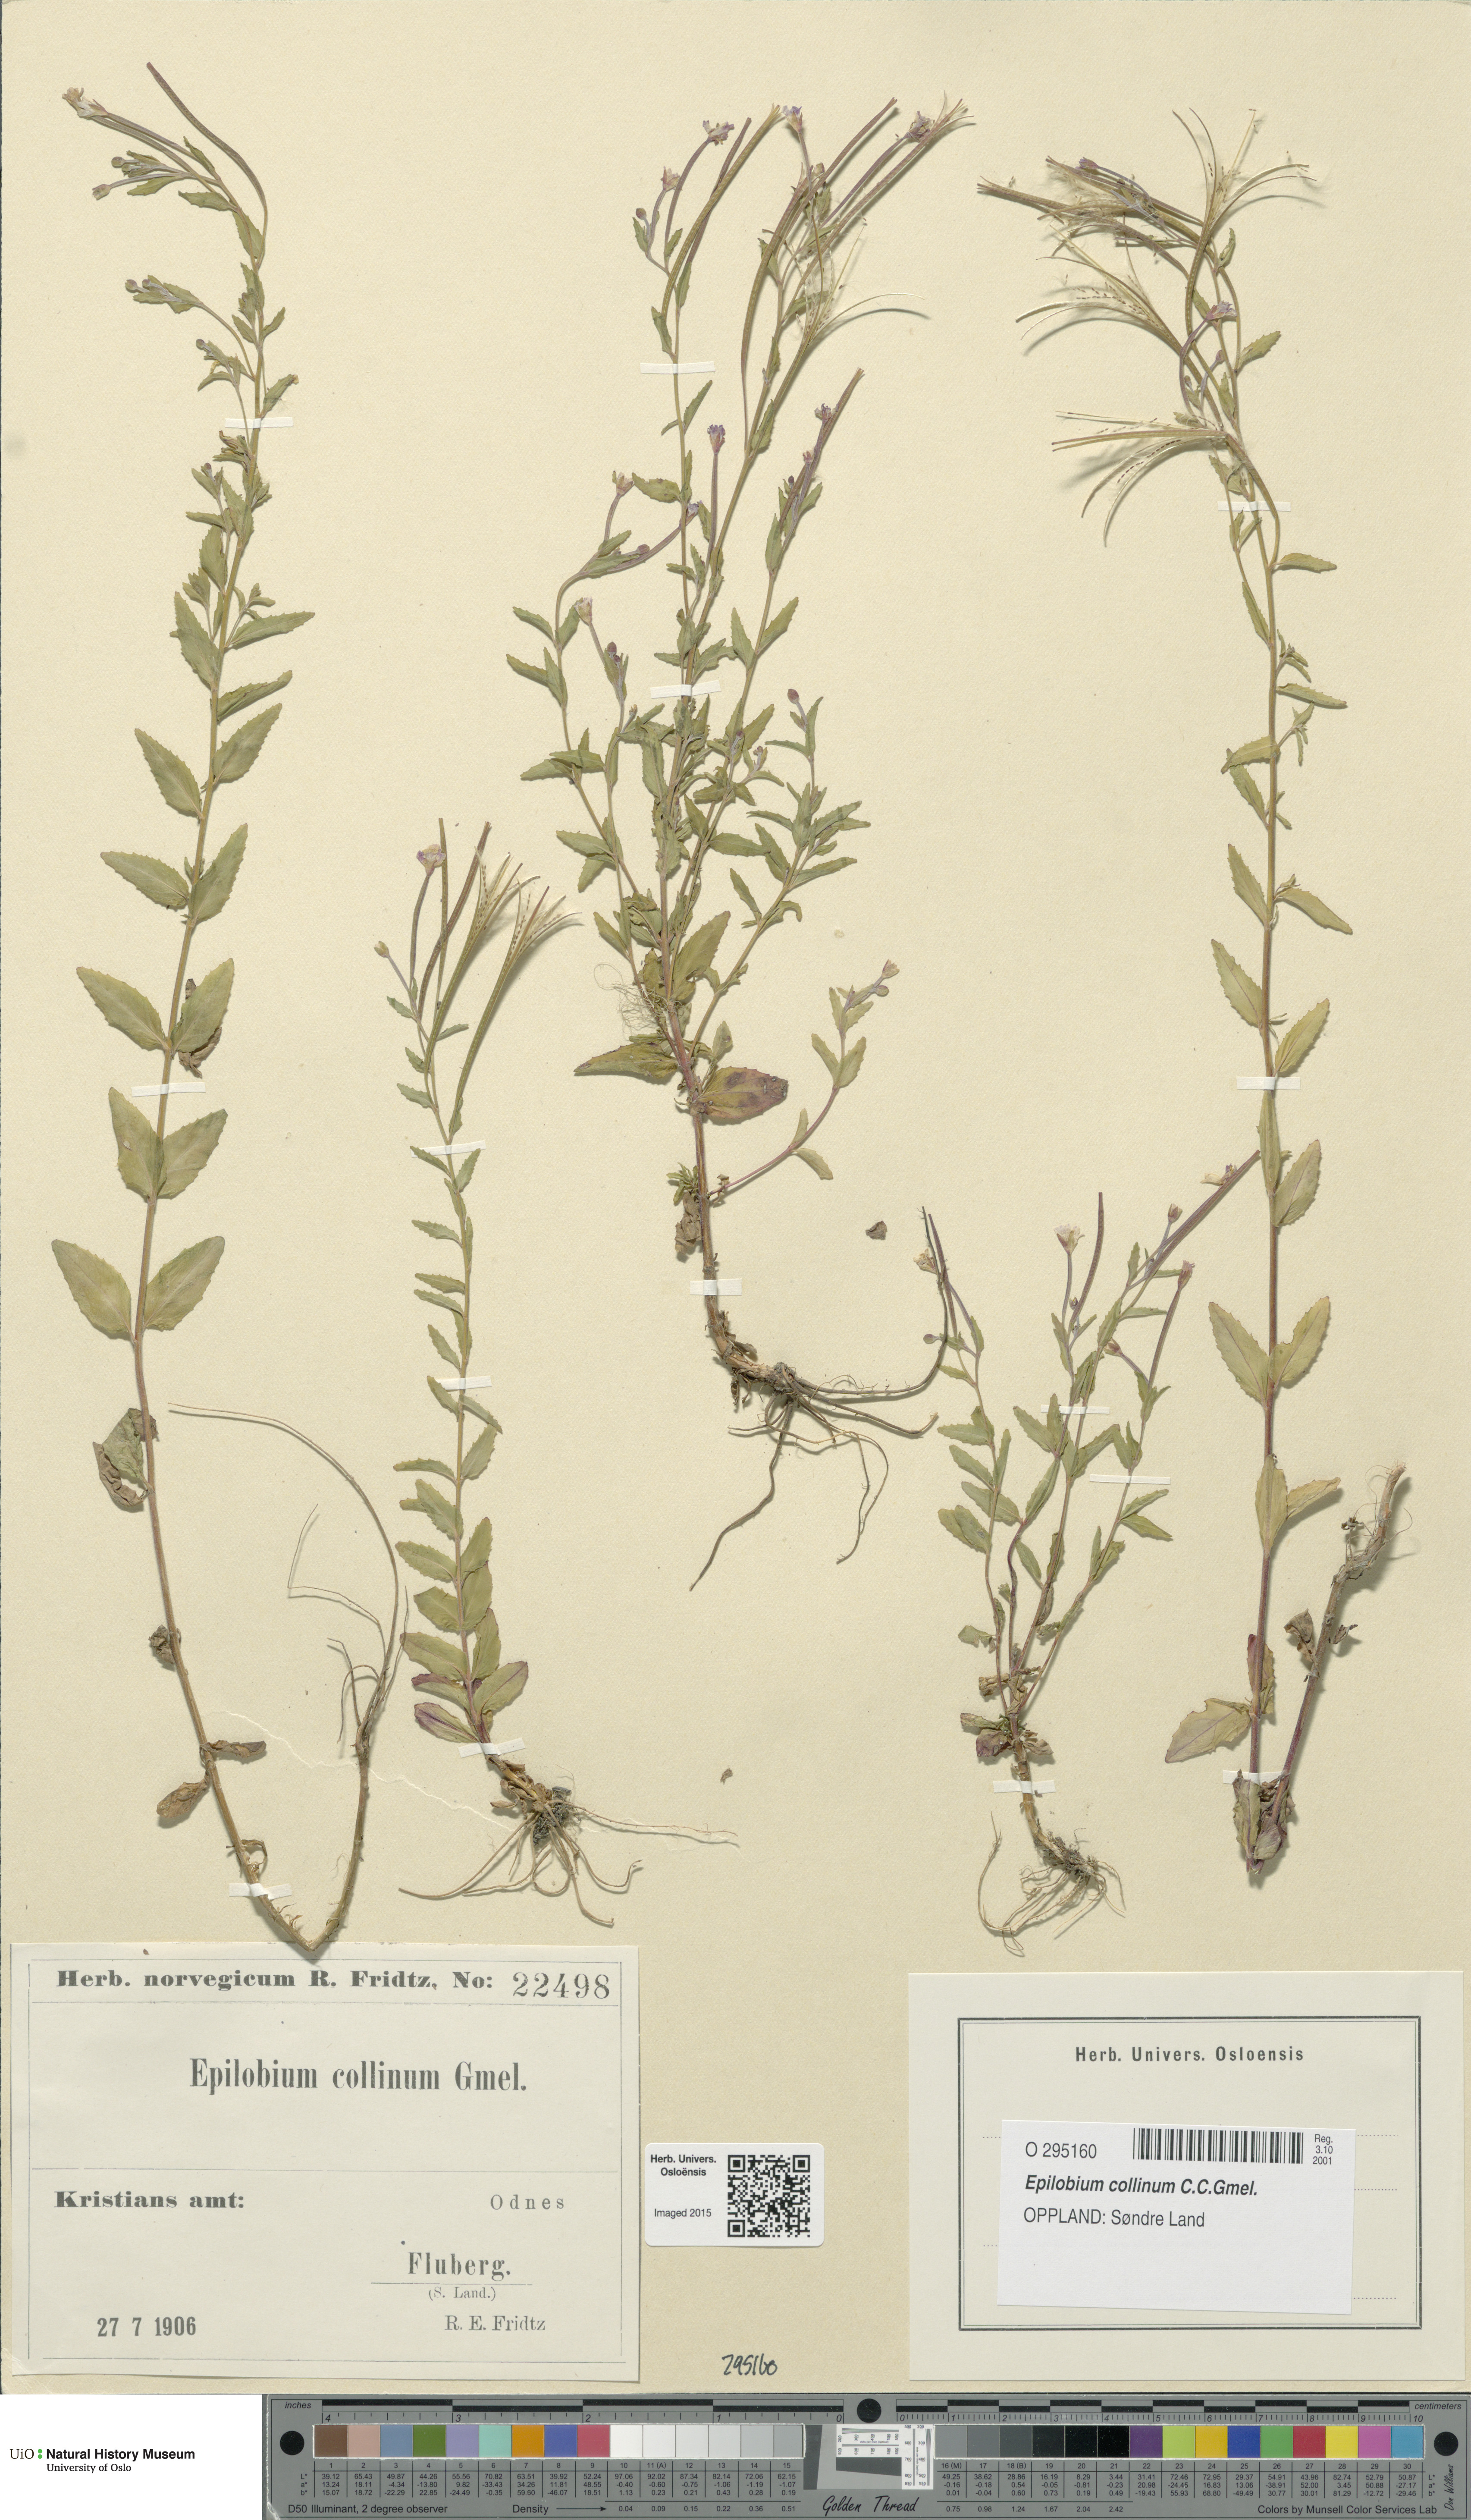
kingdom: Plantae
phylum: Tracheophyta
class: Magnoliopsida
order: Myrtales
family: Onagraceae
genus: Epilobium
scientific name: Epilobium collinum
